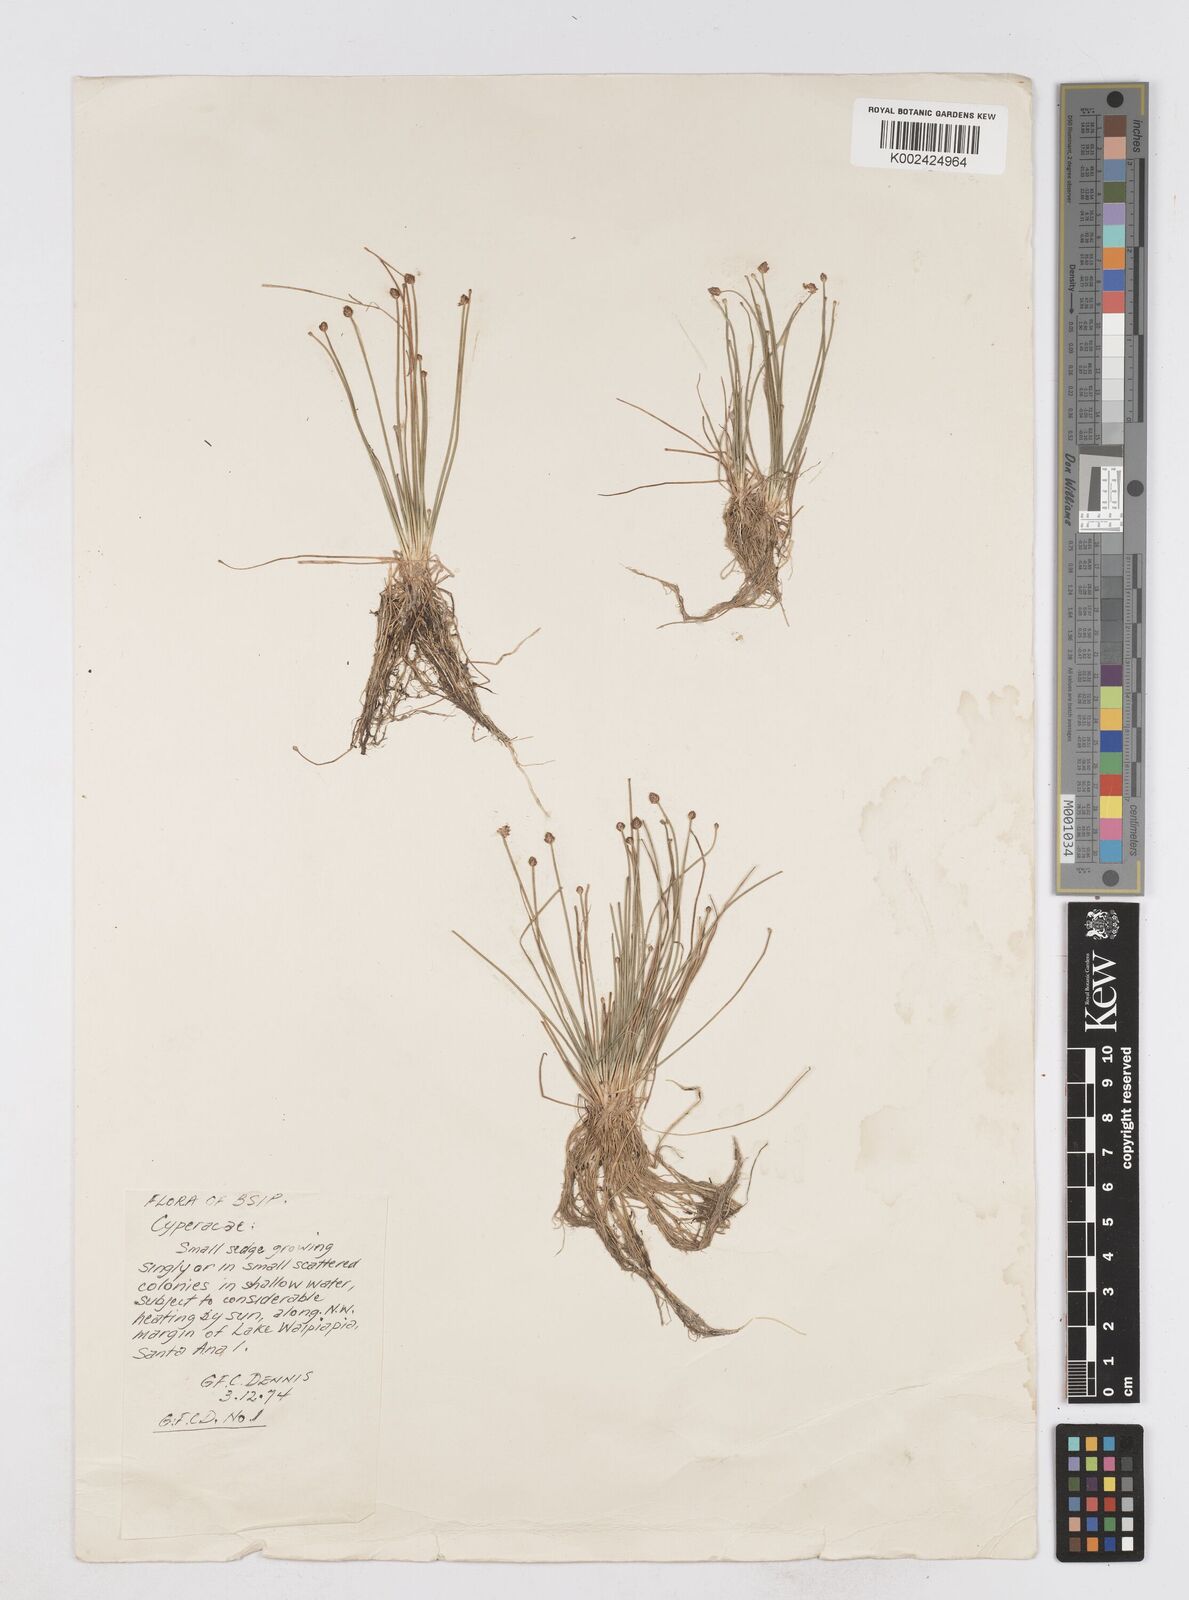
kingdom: Plantae
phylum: Tracheophyta
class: Liliopsida
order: Poales
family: Cyperaceae
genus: Eleocharis
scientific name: Eleocharis atropurpurea
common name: Purple spikerush
